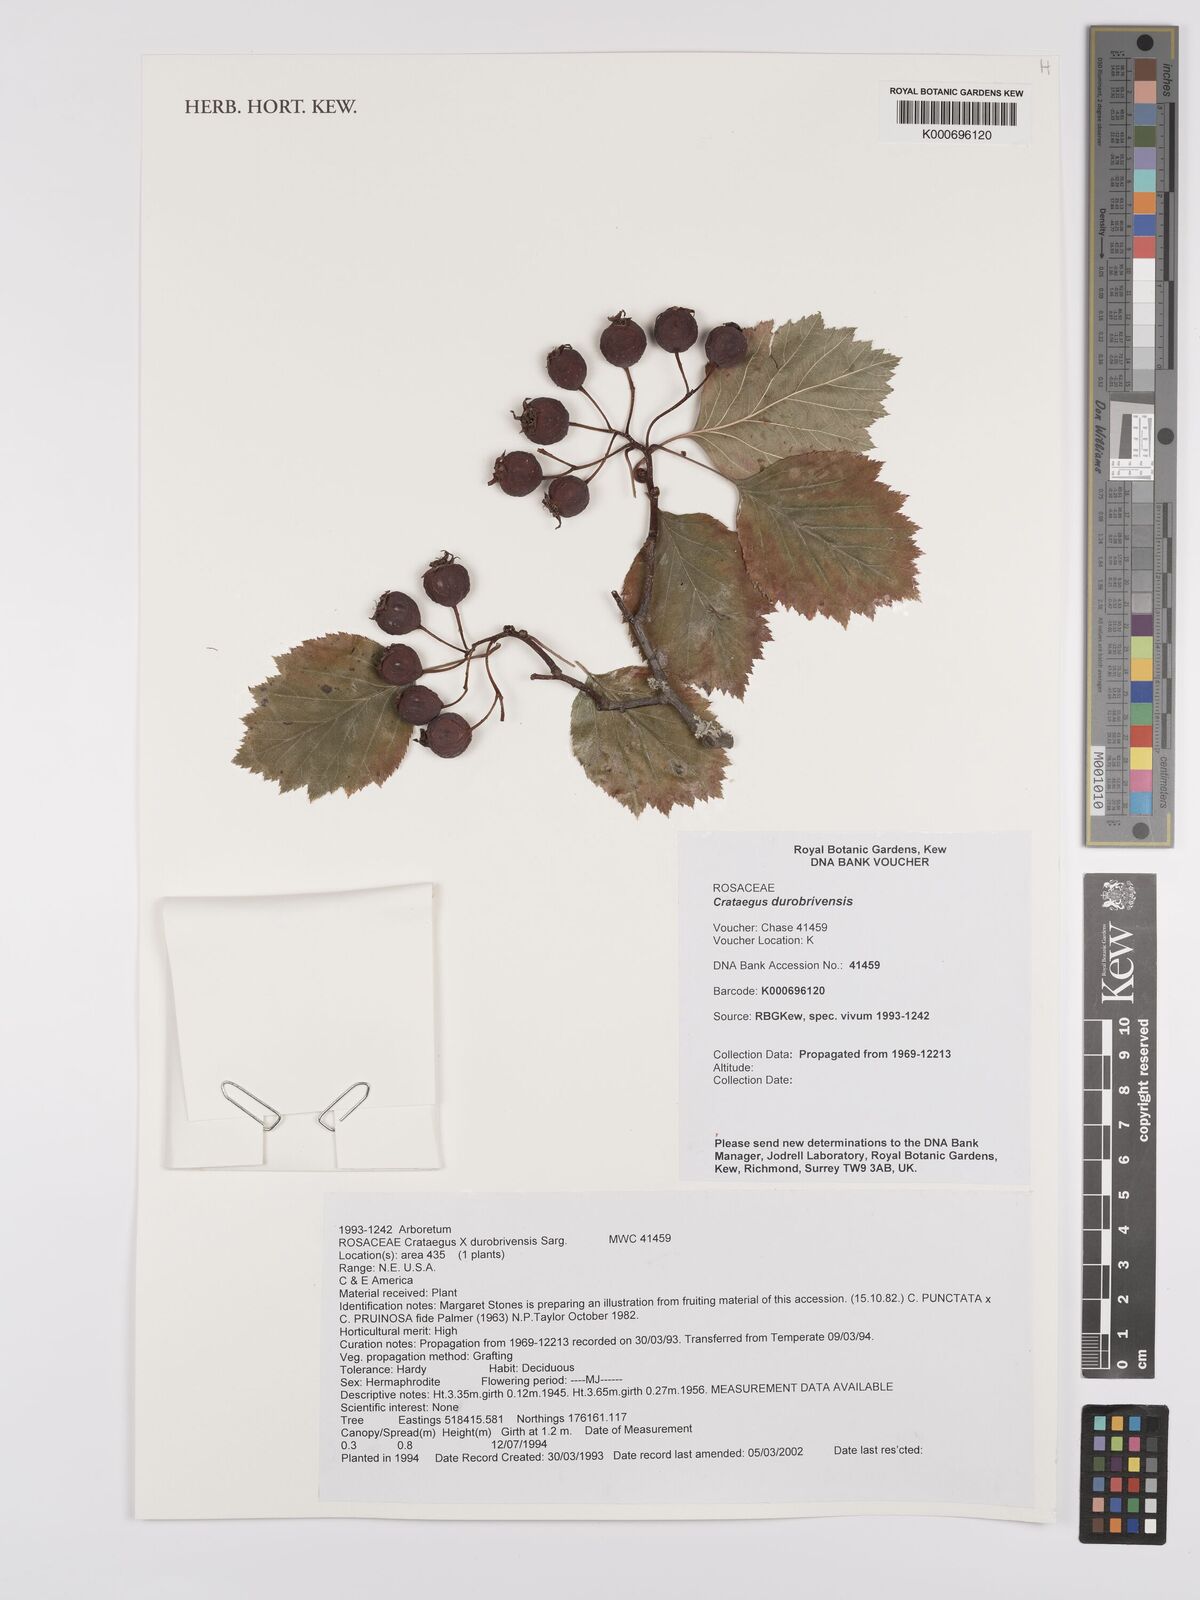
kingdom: Plantae
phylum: Tracheophyta
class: Magnoliopsida
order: Rosales
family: Rosaceae
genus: Crataegus
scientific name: Crataegus
